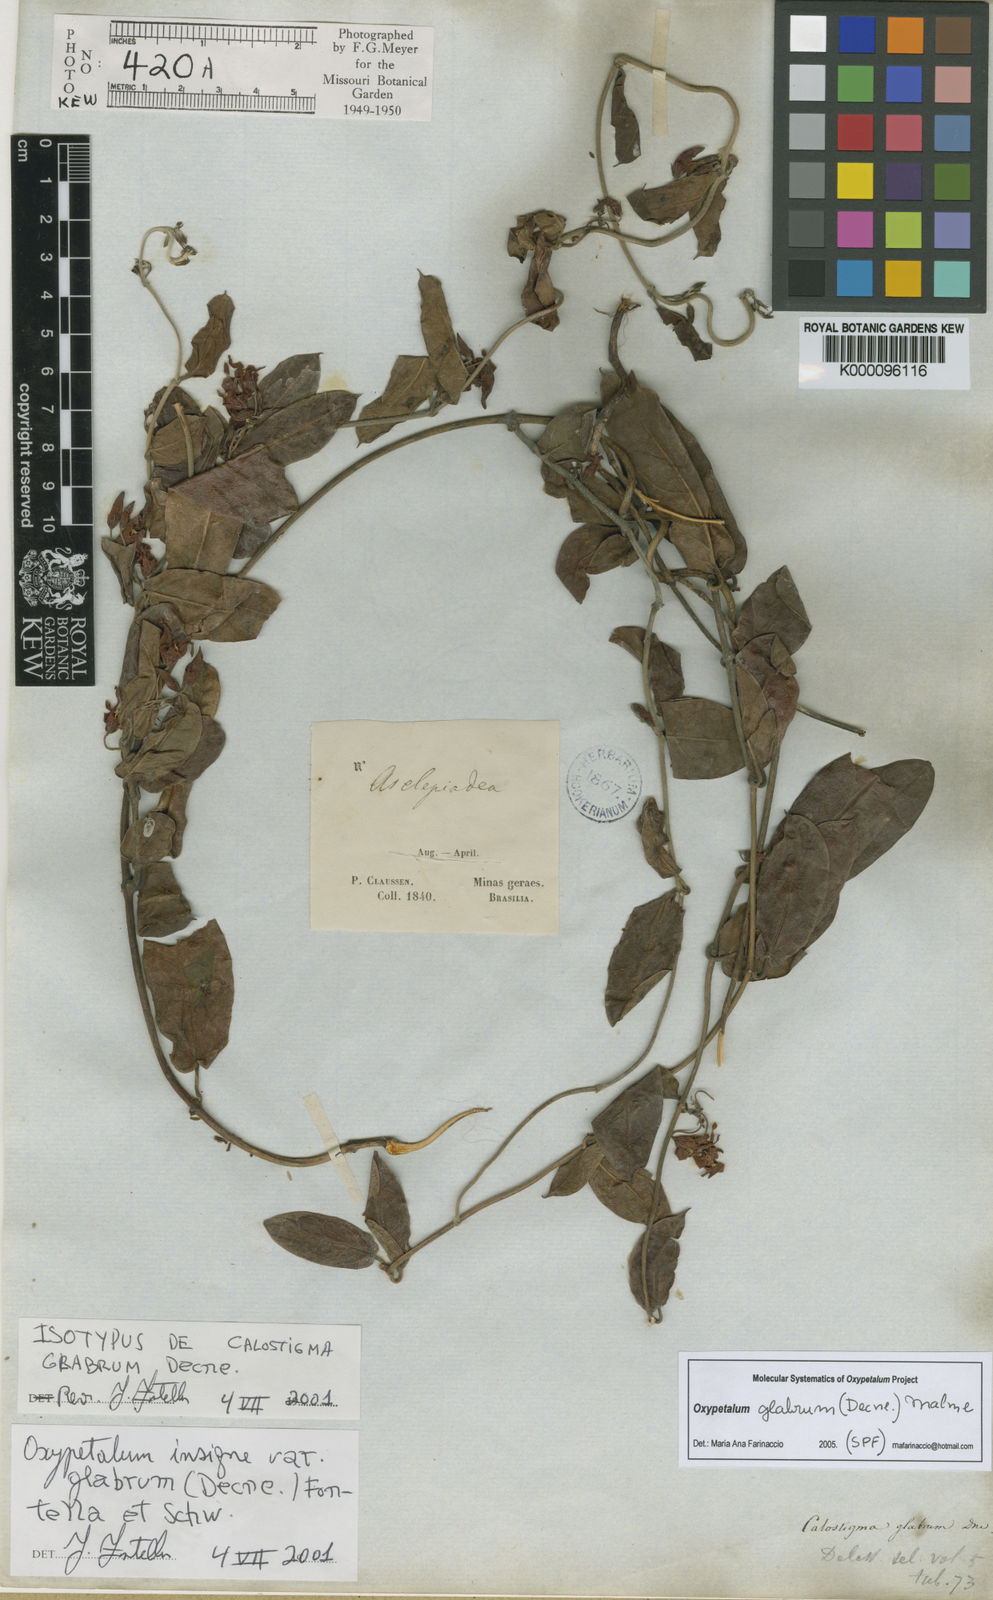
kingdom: Plantae
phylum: Tracheophyta
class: Magnoliopsida
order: Gentianales
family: Apocynaceae
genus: Oxypetalum
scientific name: Oxypetalum insigne
